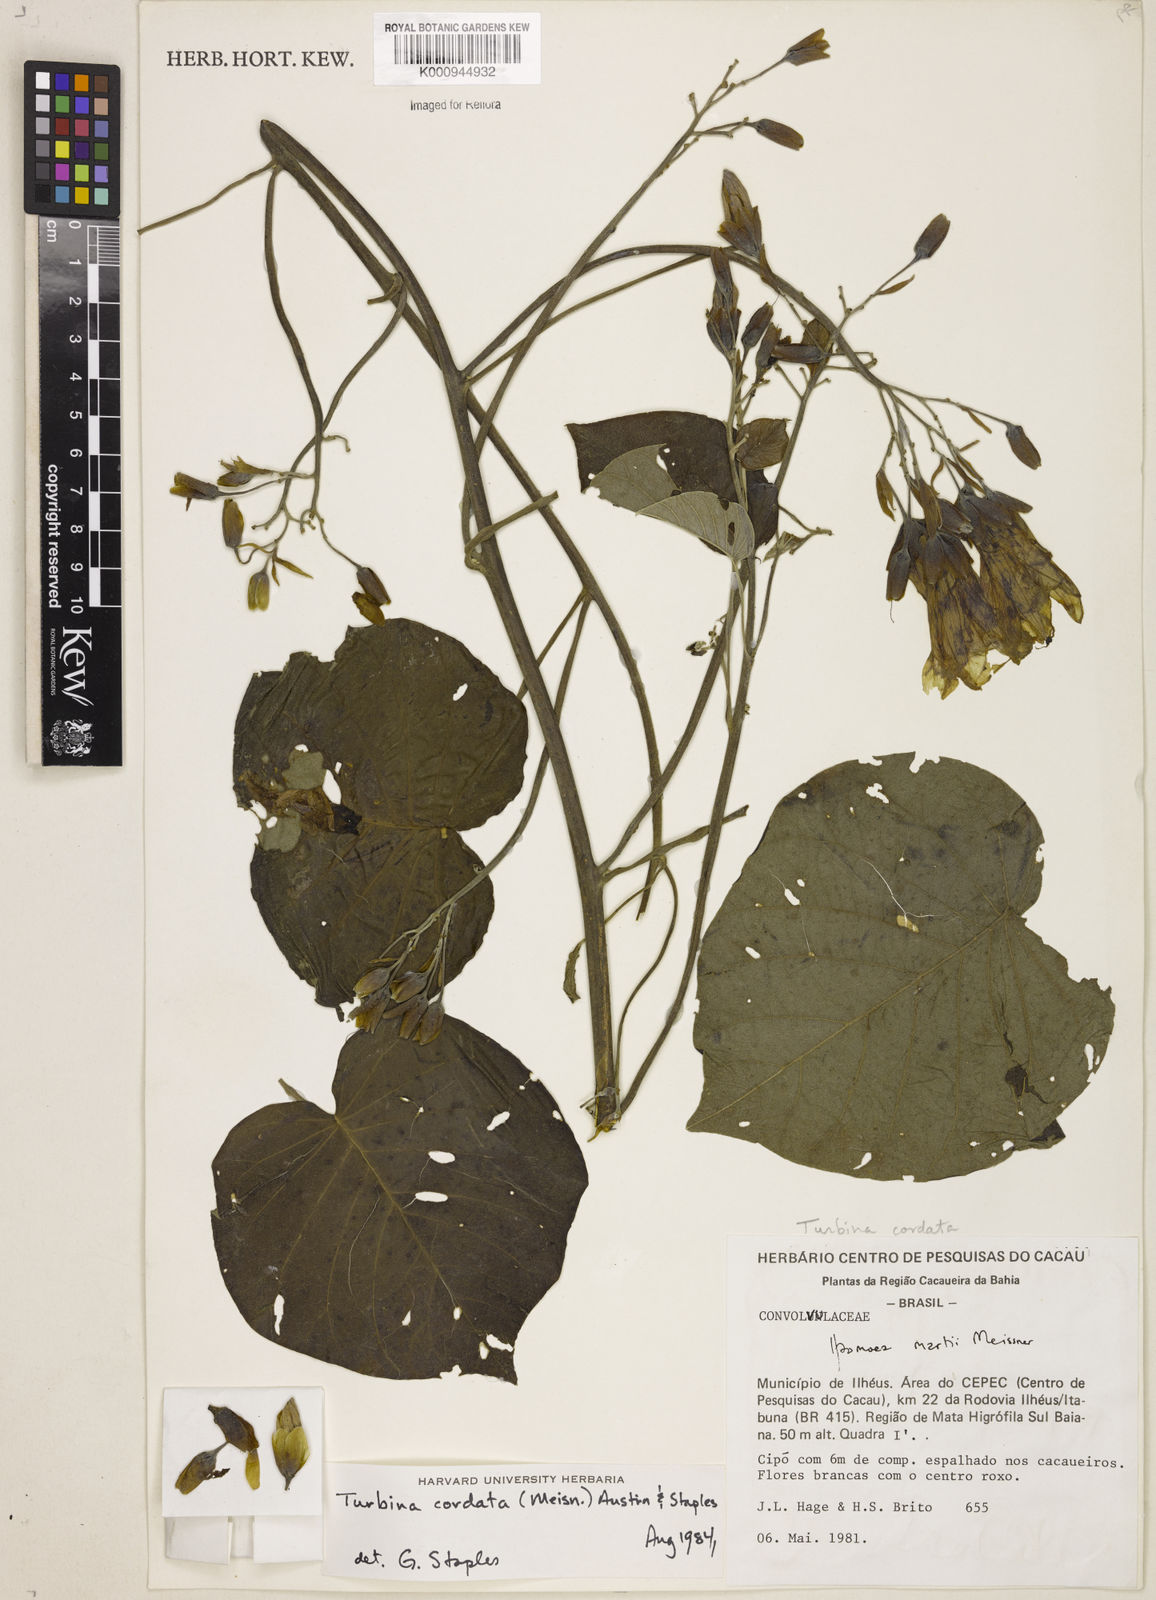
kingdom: Animalia
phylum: Mollusca
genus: Turbina
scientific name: Turbina
